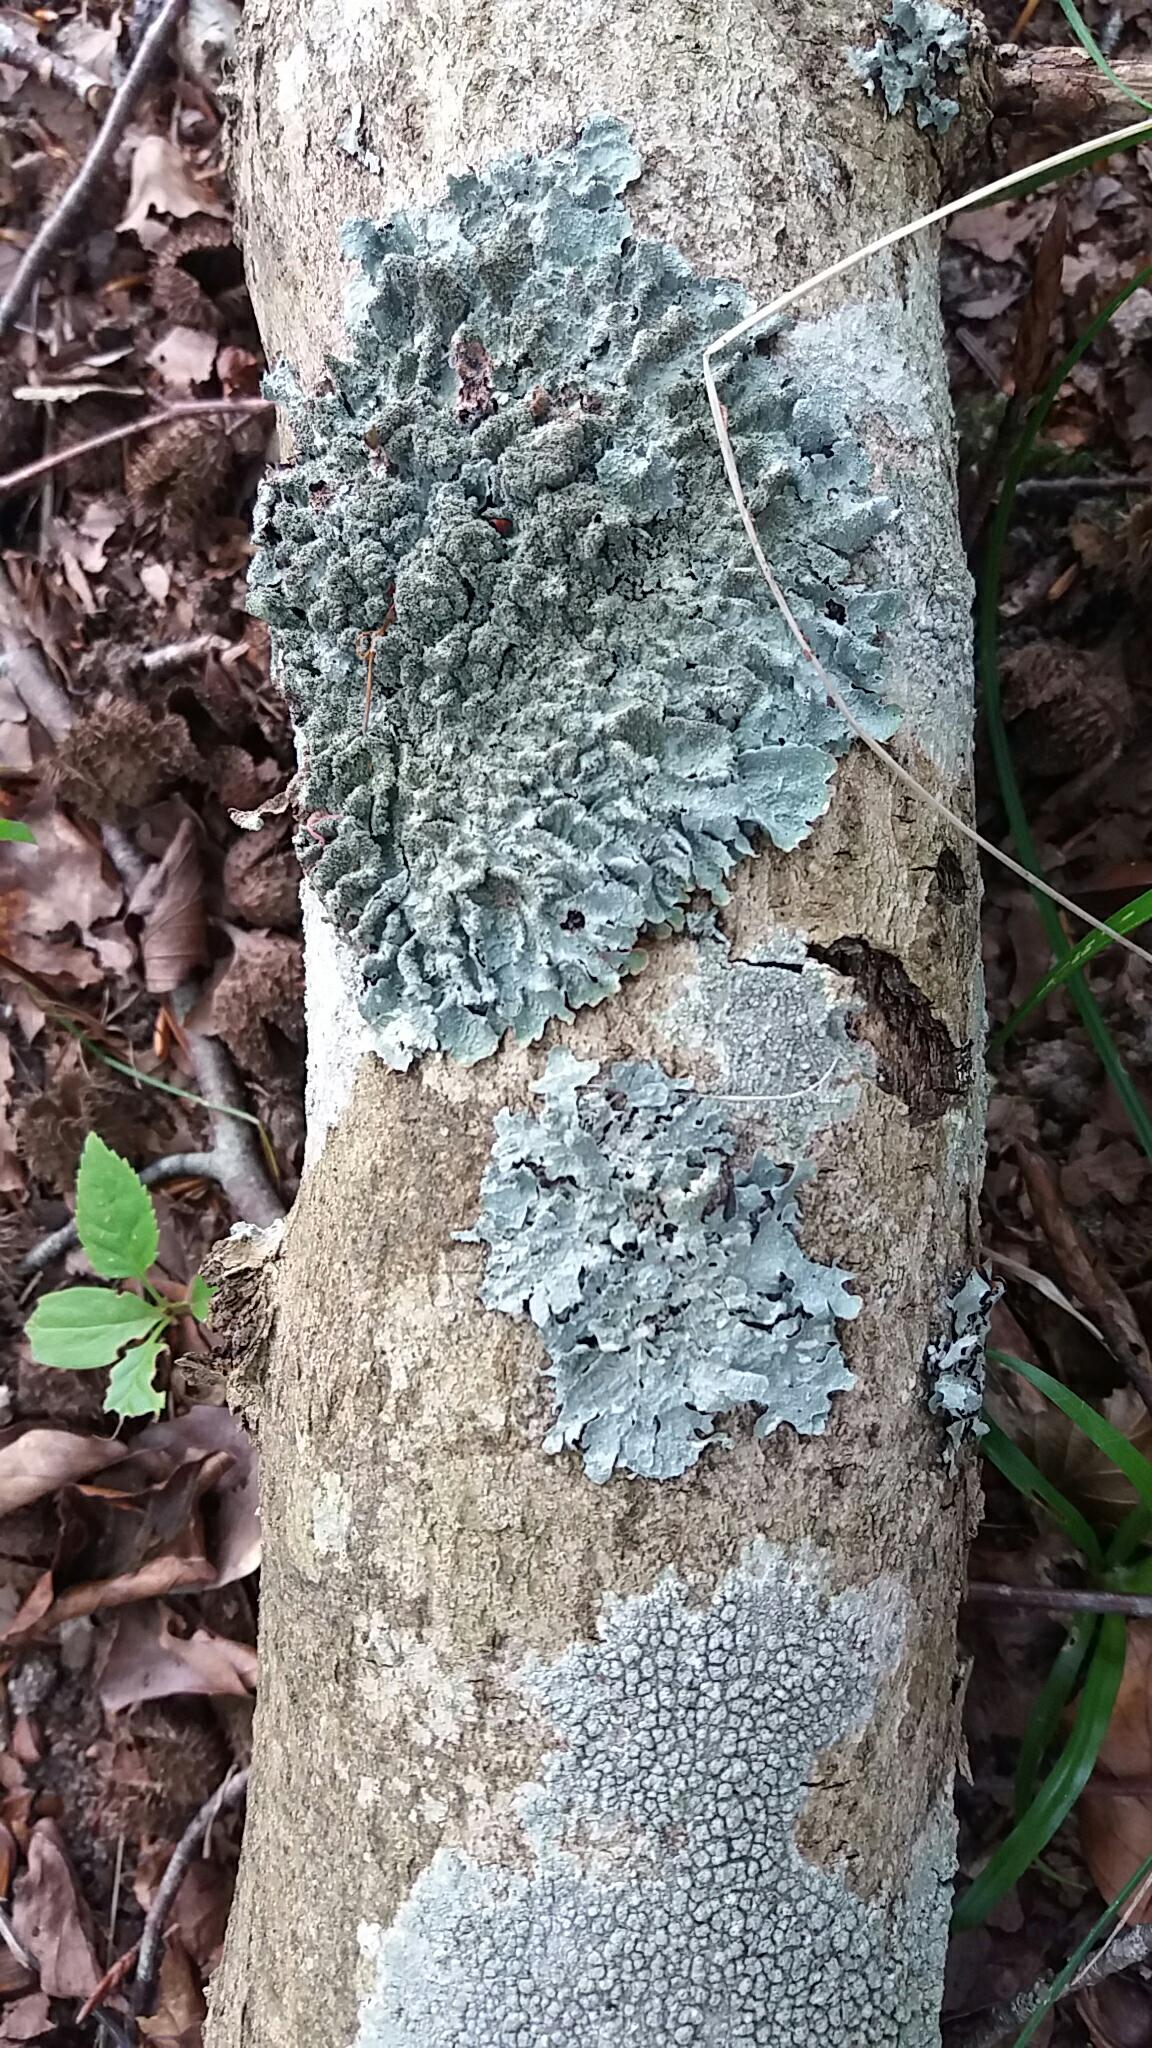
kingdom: Fungi
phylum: Ascomycota
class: Lecanoromycetes
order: Lecanorales
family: Parmeliaceae
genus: Parmelia
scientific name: Parmelia
